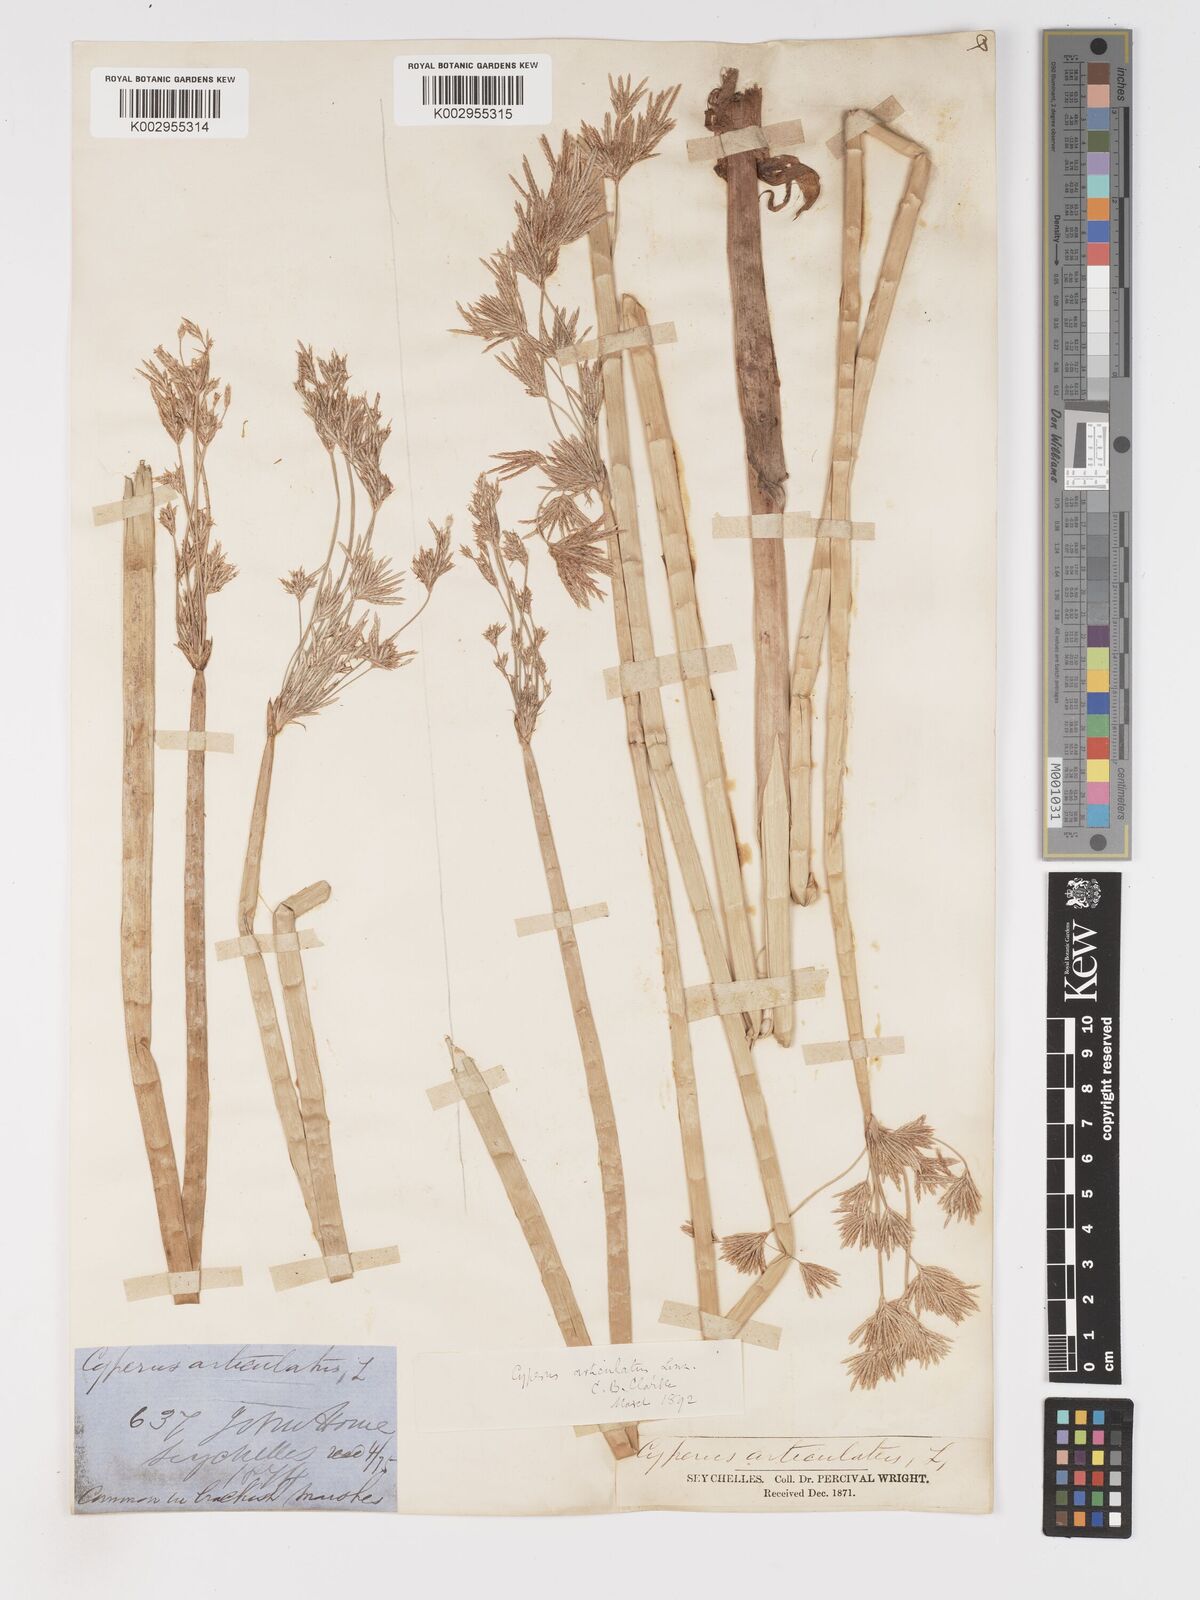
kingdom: Plantae
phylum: Tracheophyta
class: Liliopsida
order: Poales
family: Cyperaceae
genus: Cyperus
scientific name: Cyperus articulatus
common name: Jointed flatsedge
